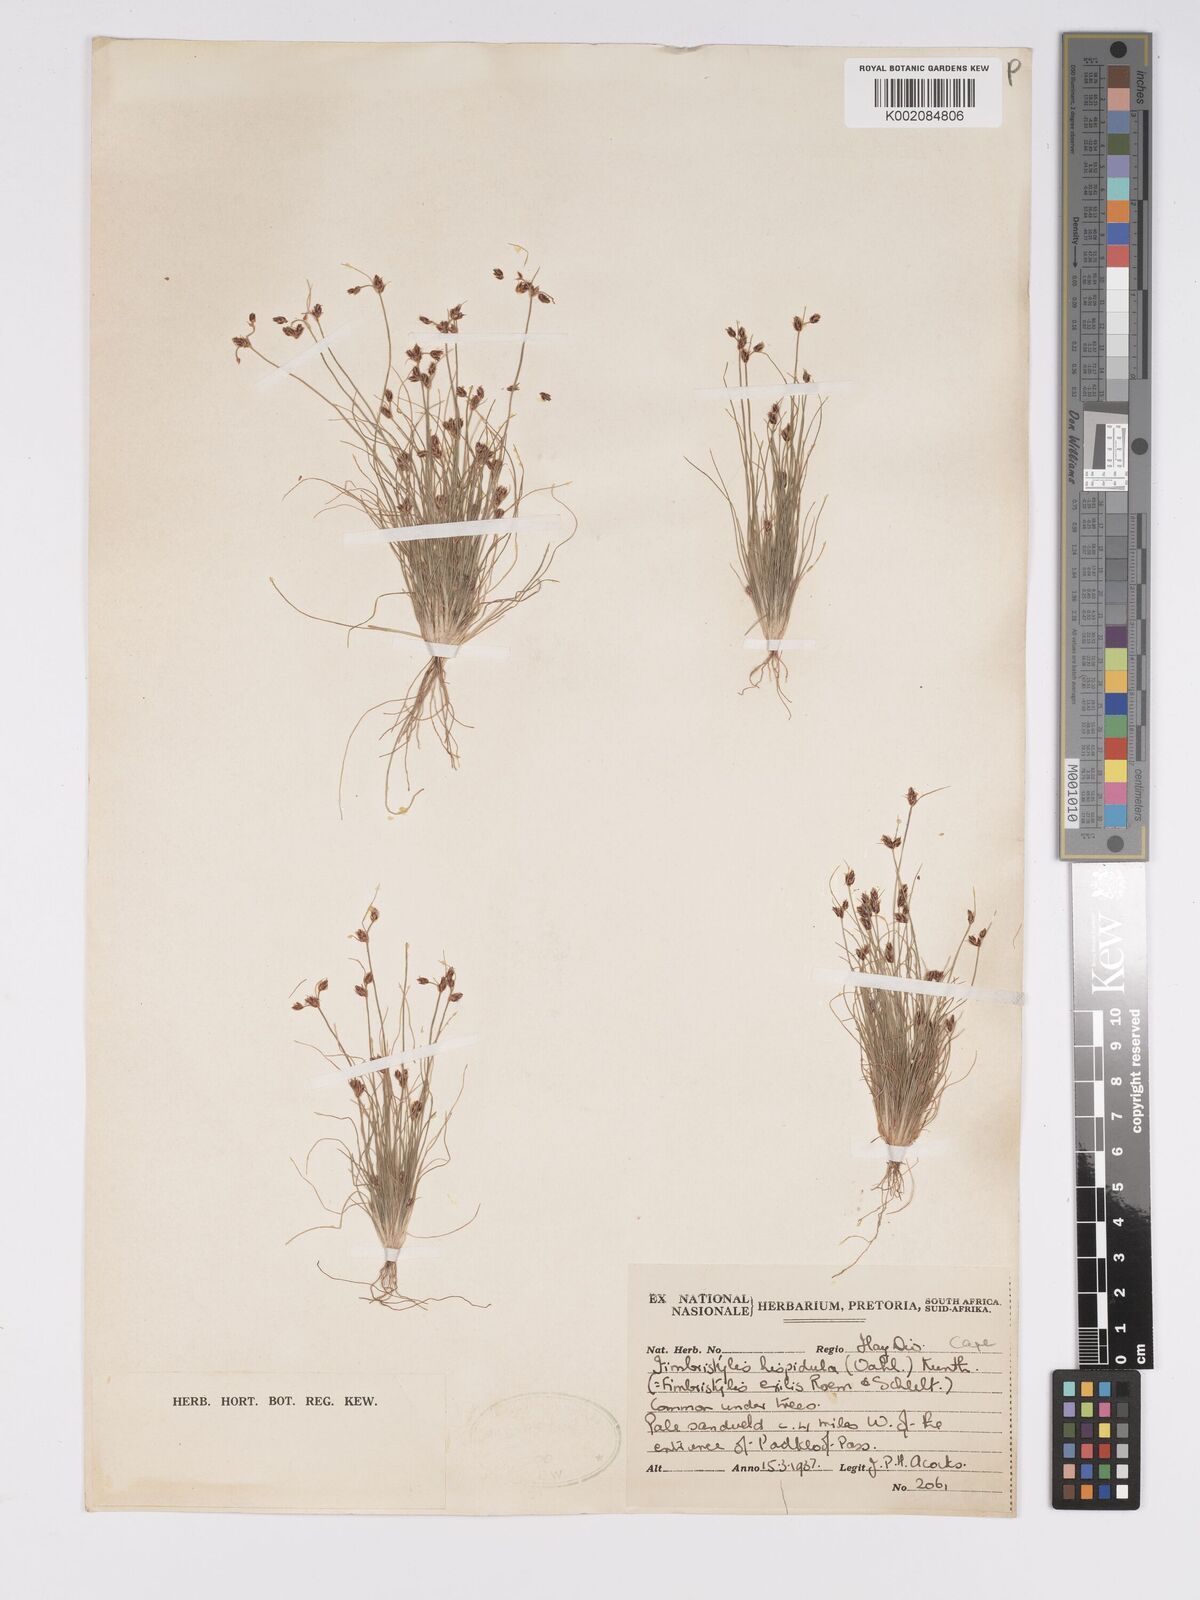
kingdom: Plantae
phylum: Tracheophyta
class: Liliopsida
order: Poales
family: Cyperaceae
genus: Bulbostylis
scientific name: Bulbostylis hispidula
